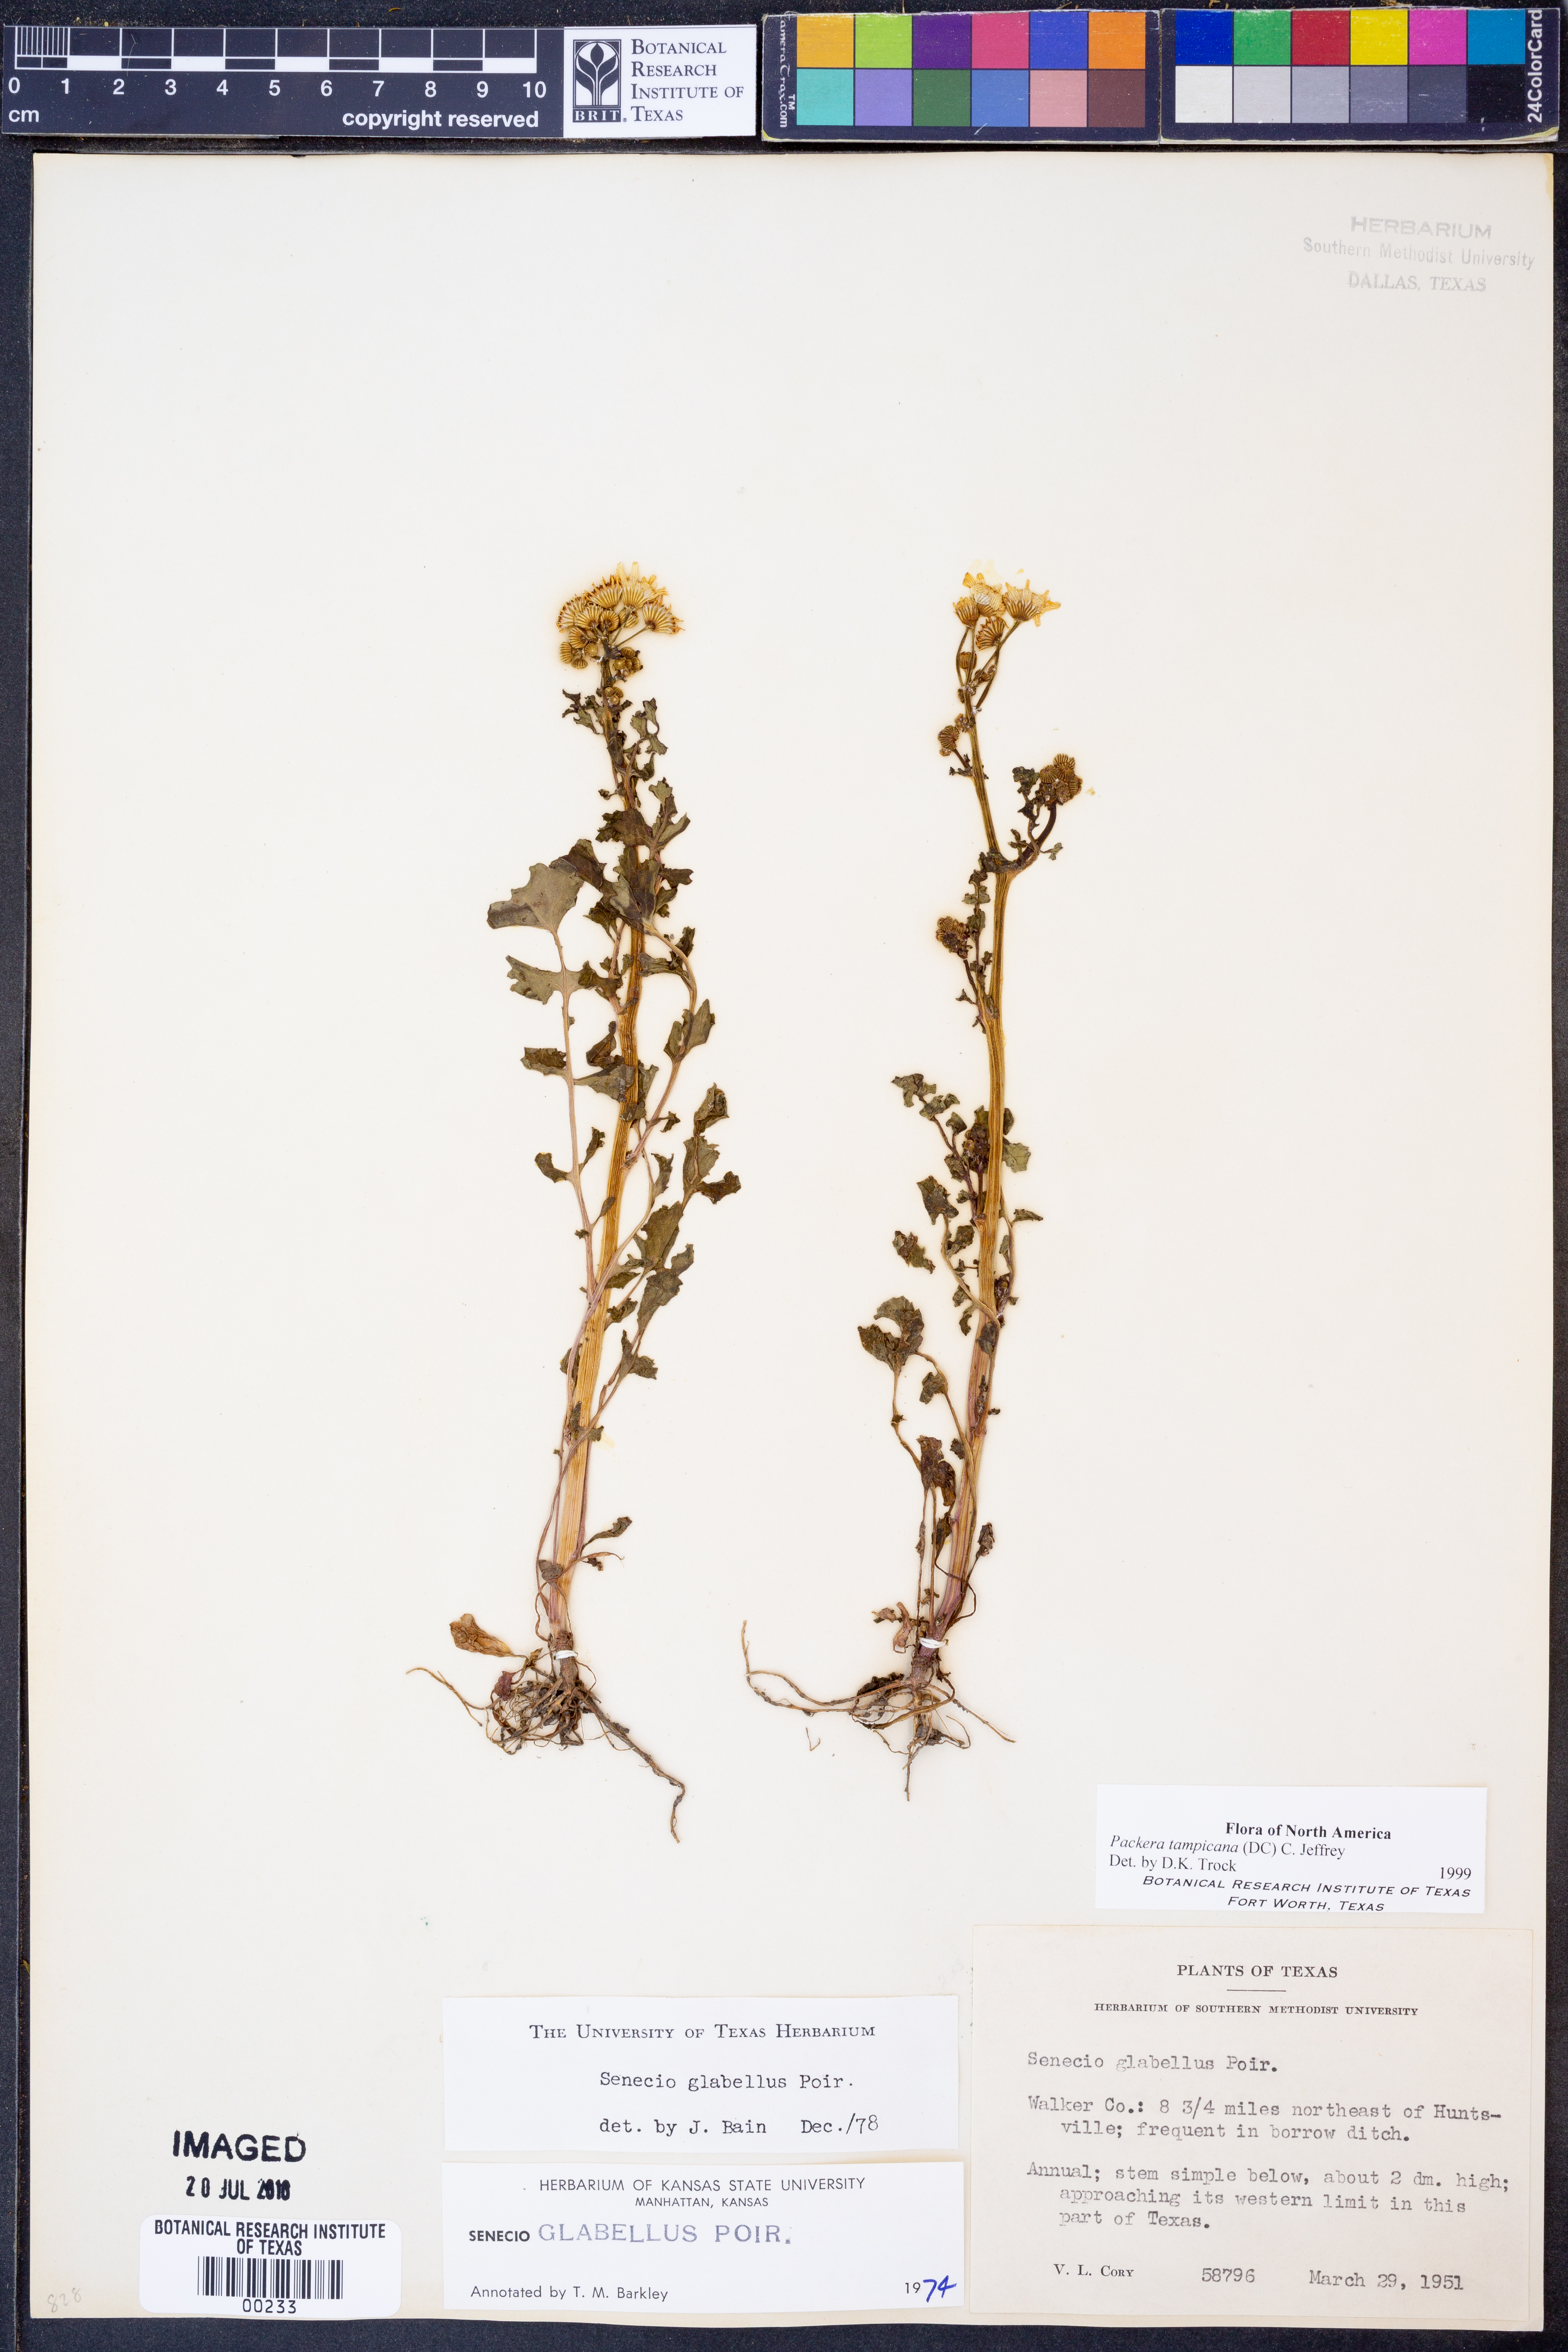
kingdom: Plantae
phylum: Tracheophyta
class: Magnoliopsida
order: Asterales
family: Asteraceae
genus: Packera
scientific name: Packera tampicana
